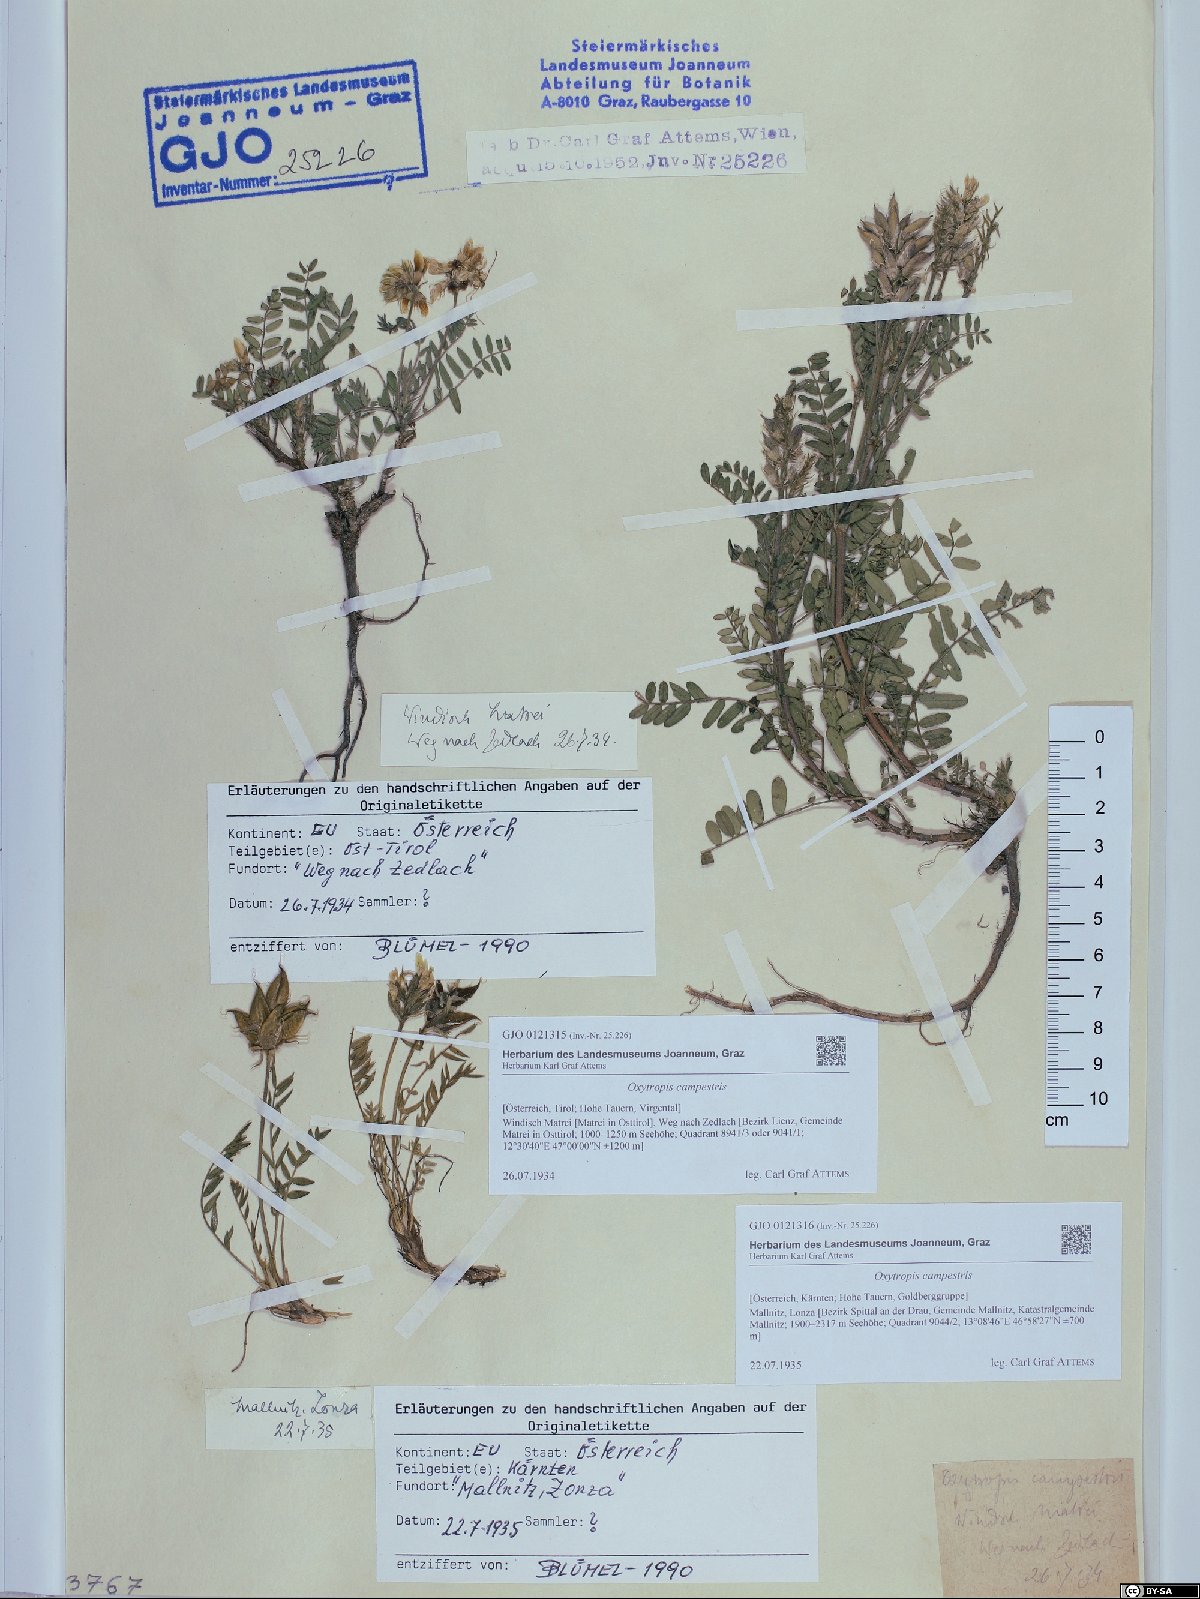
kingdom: Plantae
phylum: Tracheophyta
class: Magnoliopsida
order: Fabales
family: Fabaceae
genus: Oxytropis
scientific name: Oxytropis campestris
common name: Field locoweed
